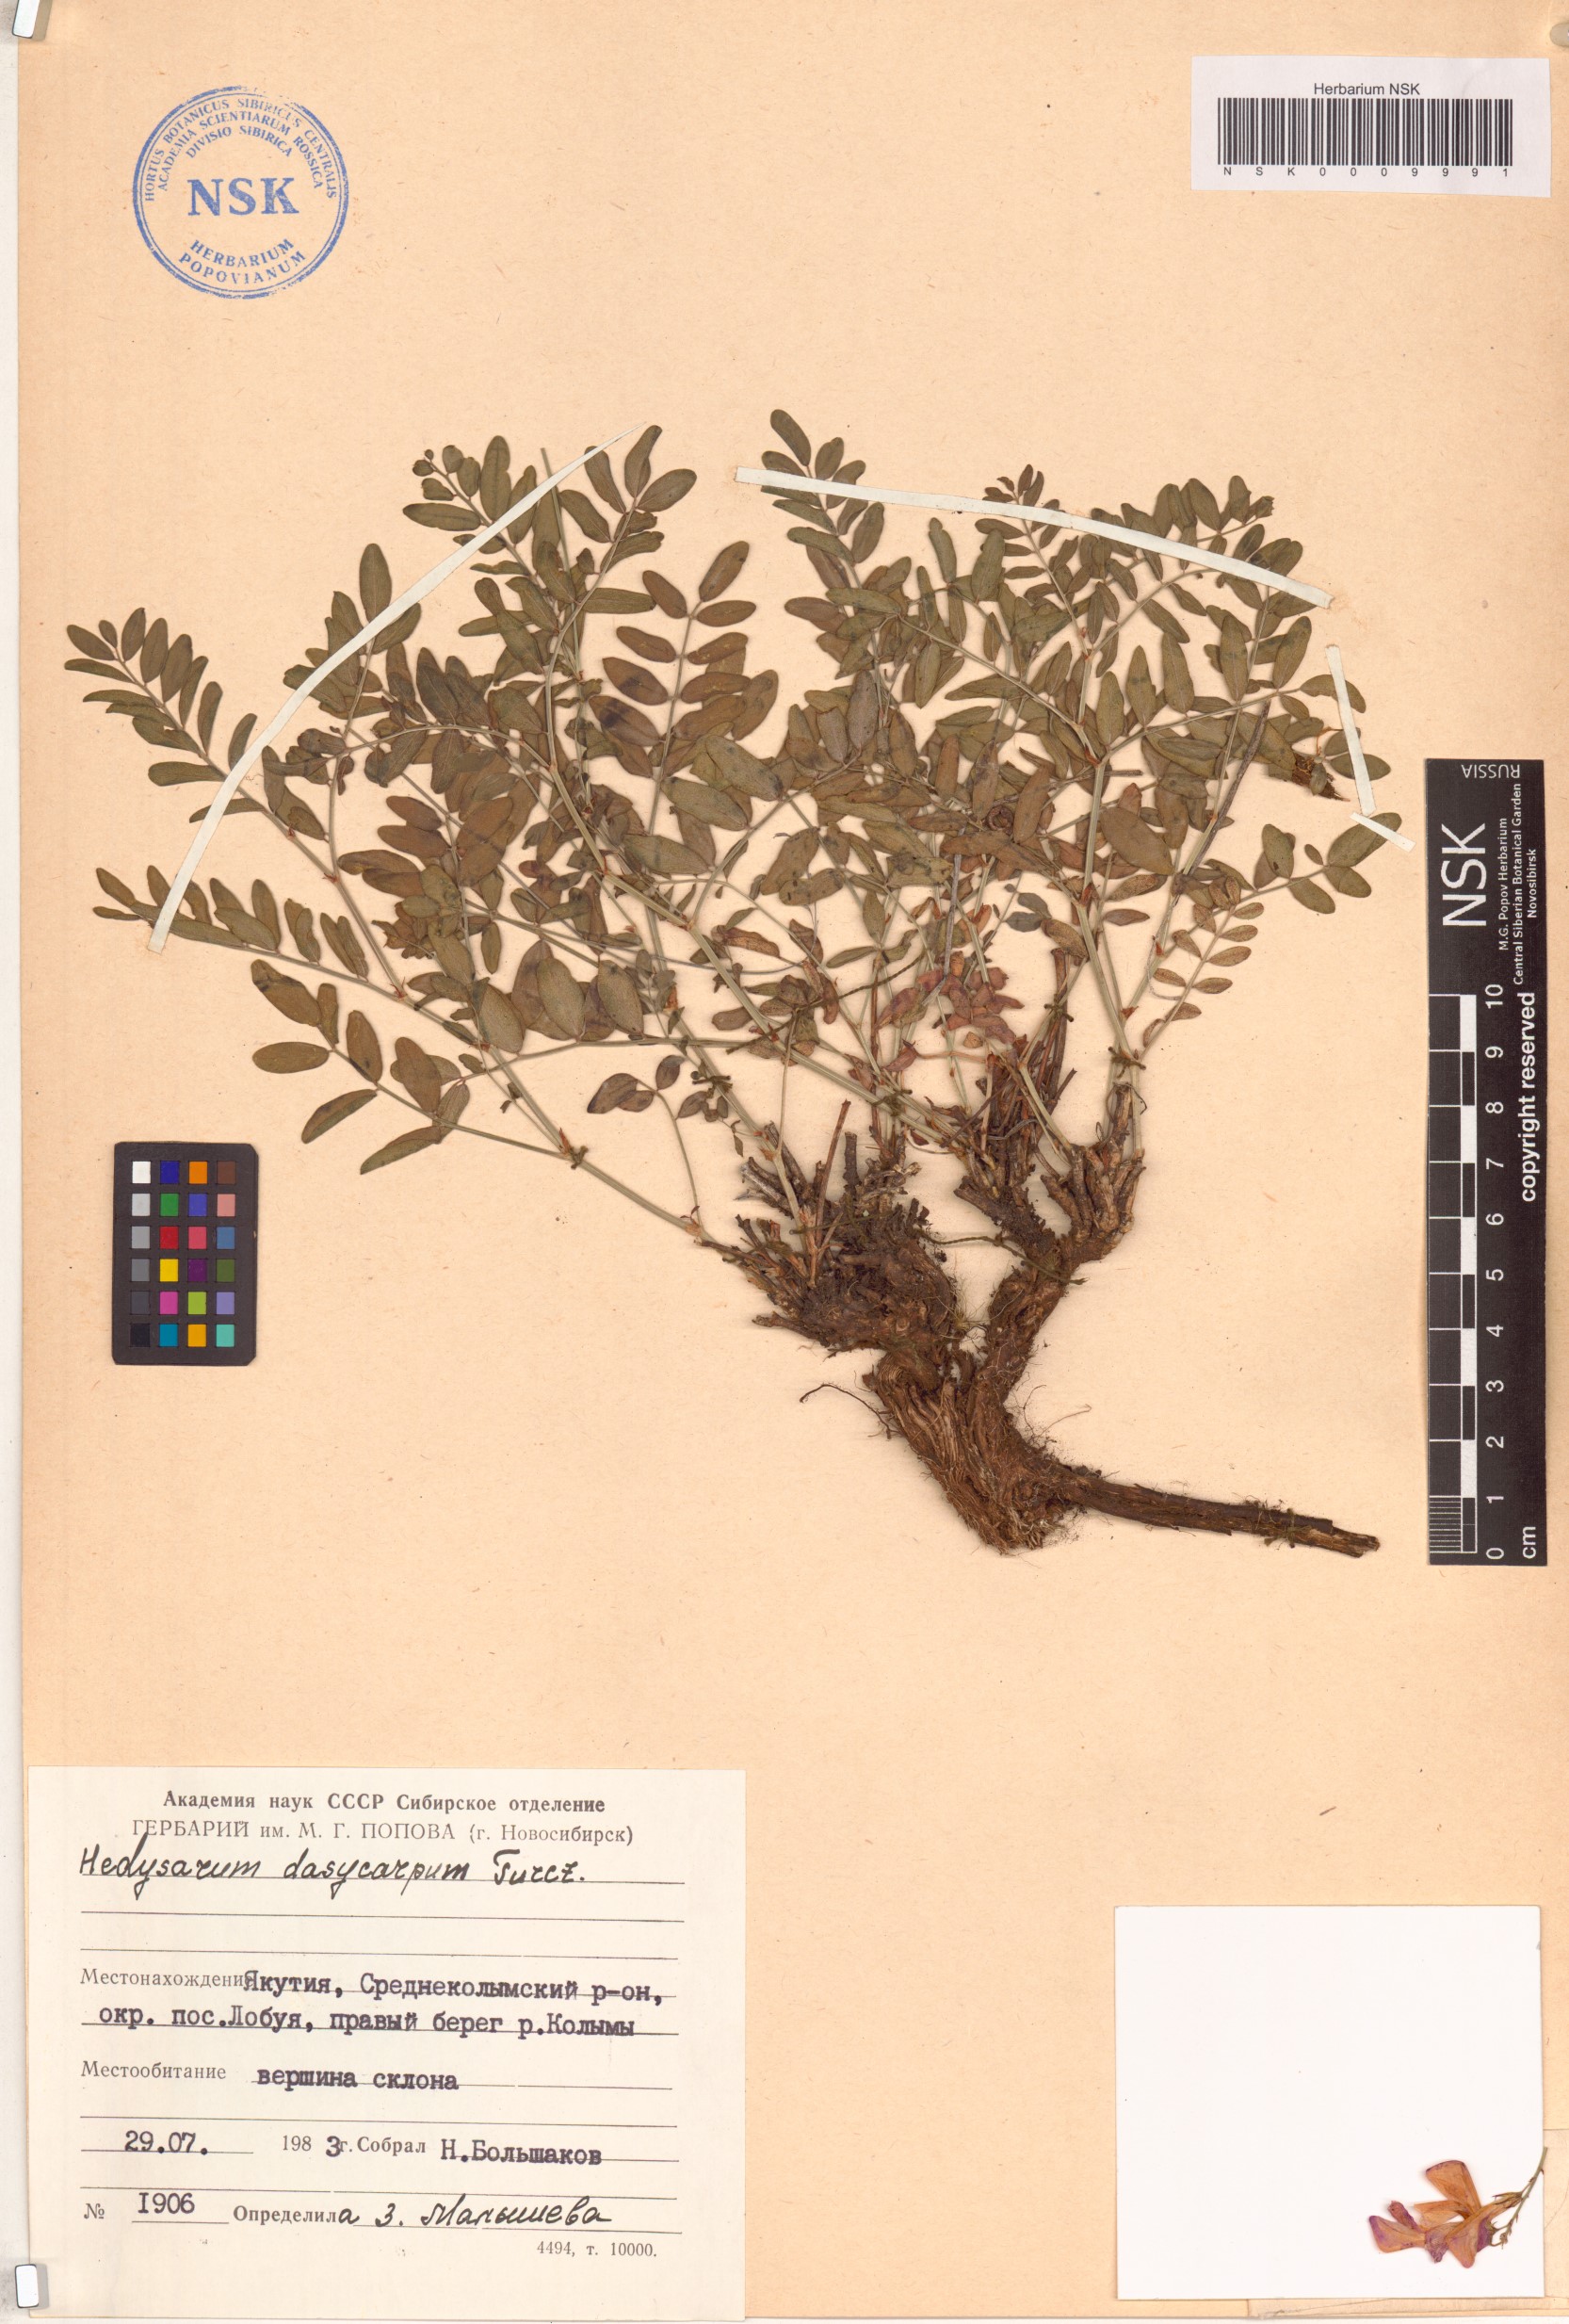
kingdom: Plantae
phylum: Tracheophyta
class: Magnoliopsida
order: Fabales
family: Fabaceae
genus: Hedysarum
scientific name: Hedysarum dasycarpum
